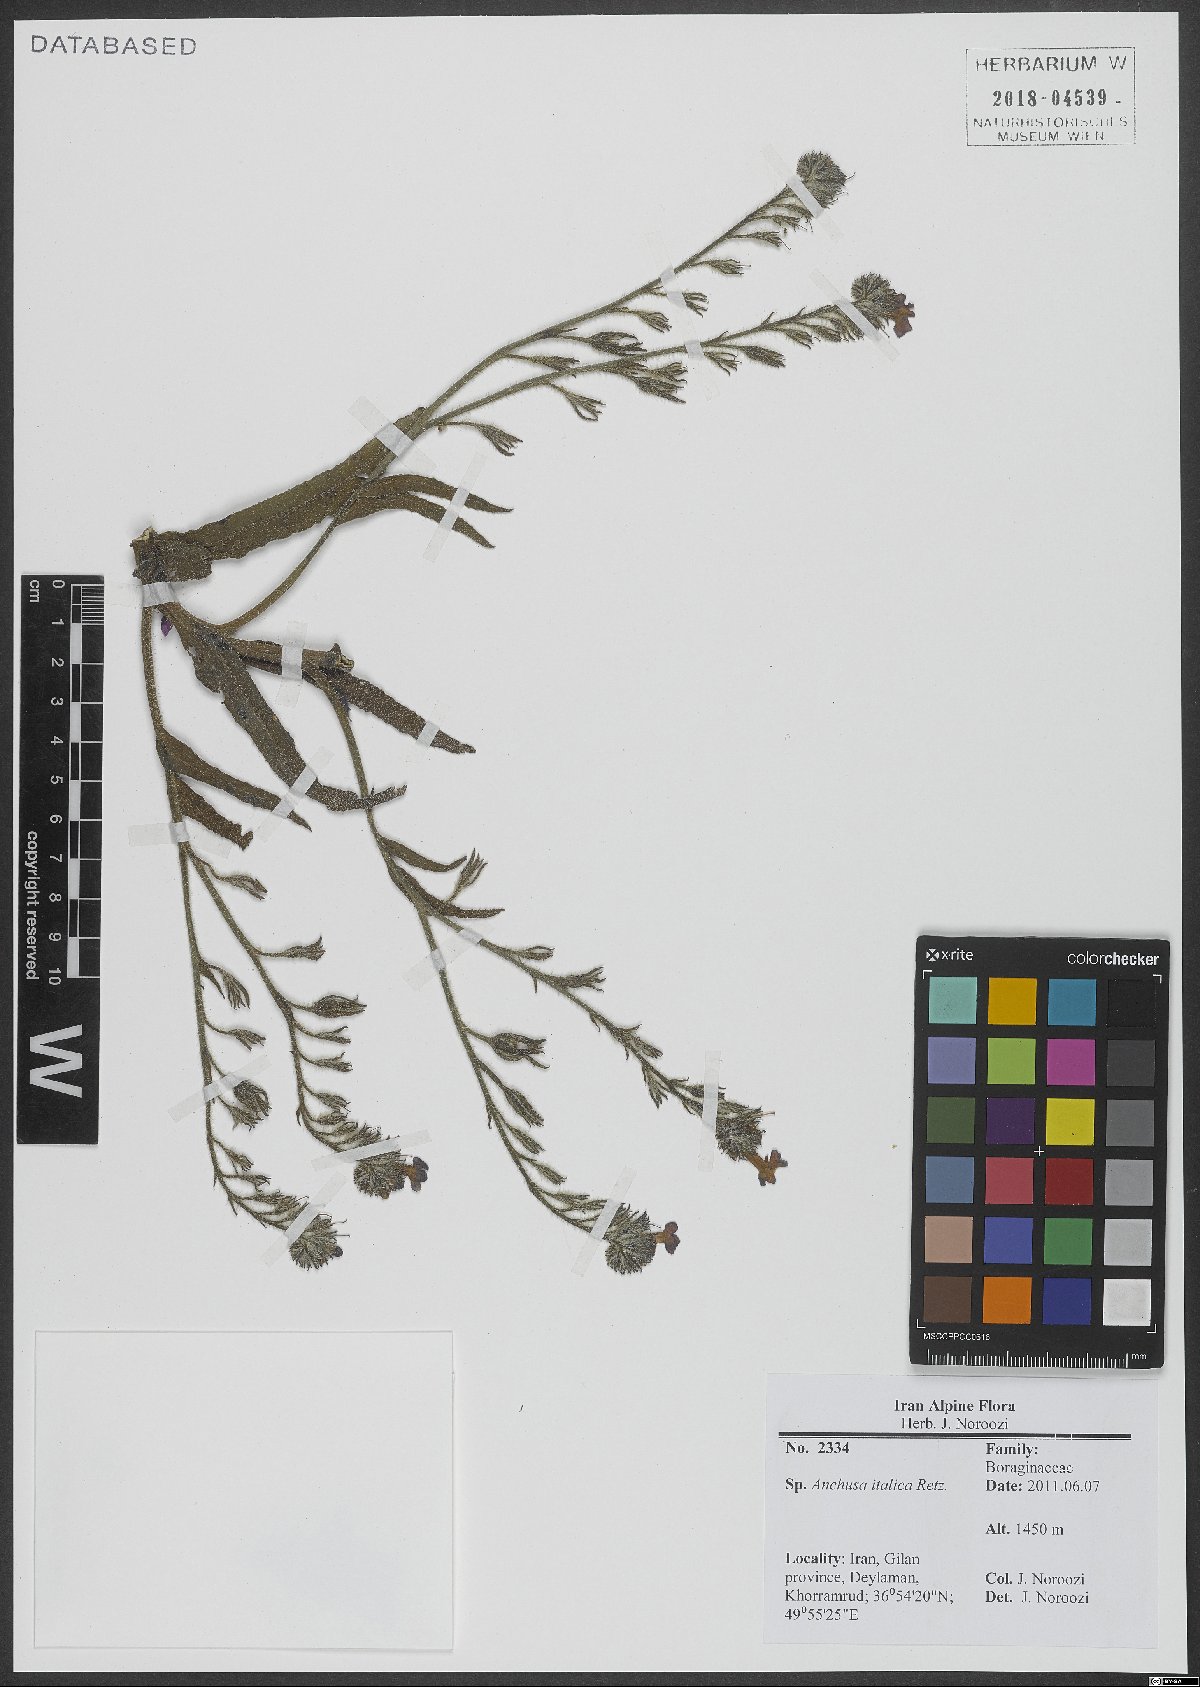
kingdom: Plantae
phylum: Tracheophyta
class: Magnoliopsida
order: Boraginales
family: Boraginaceae
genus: Anchusa
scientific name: Anchusa azurea
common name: Garden anchusa
